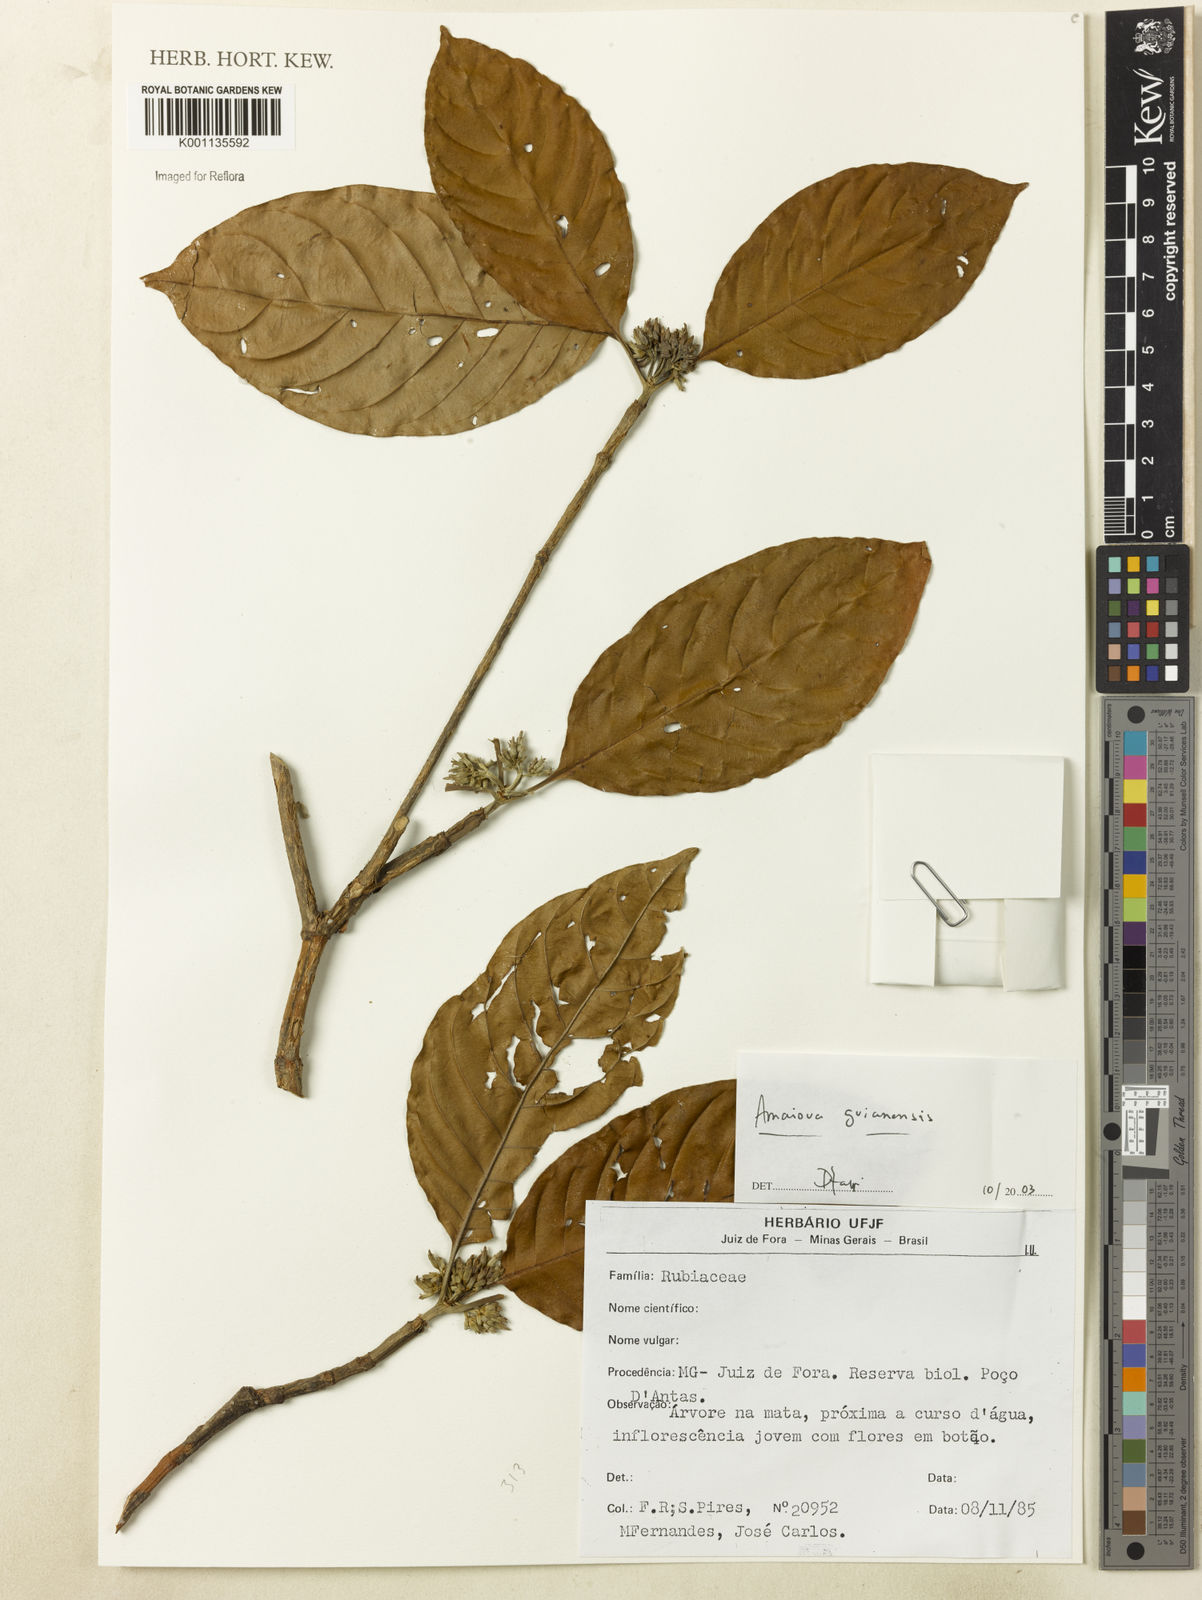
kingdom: Plantae
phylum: Tracheophyta
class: Magnoliopsida
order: Gentianales
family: Rubiaceae
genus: Amaioua
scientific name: Amaioua intermedia
